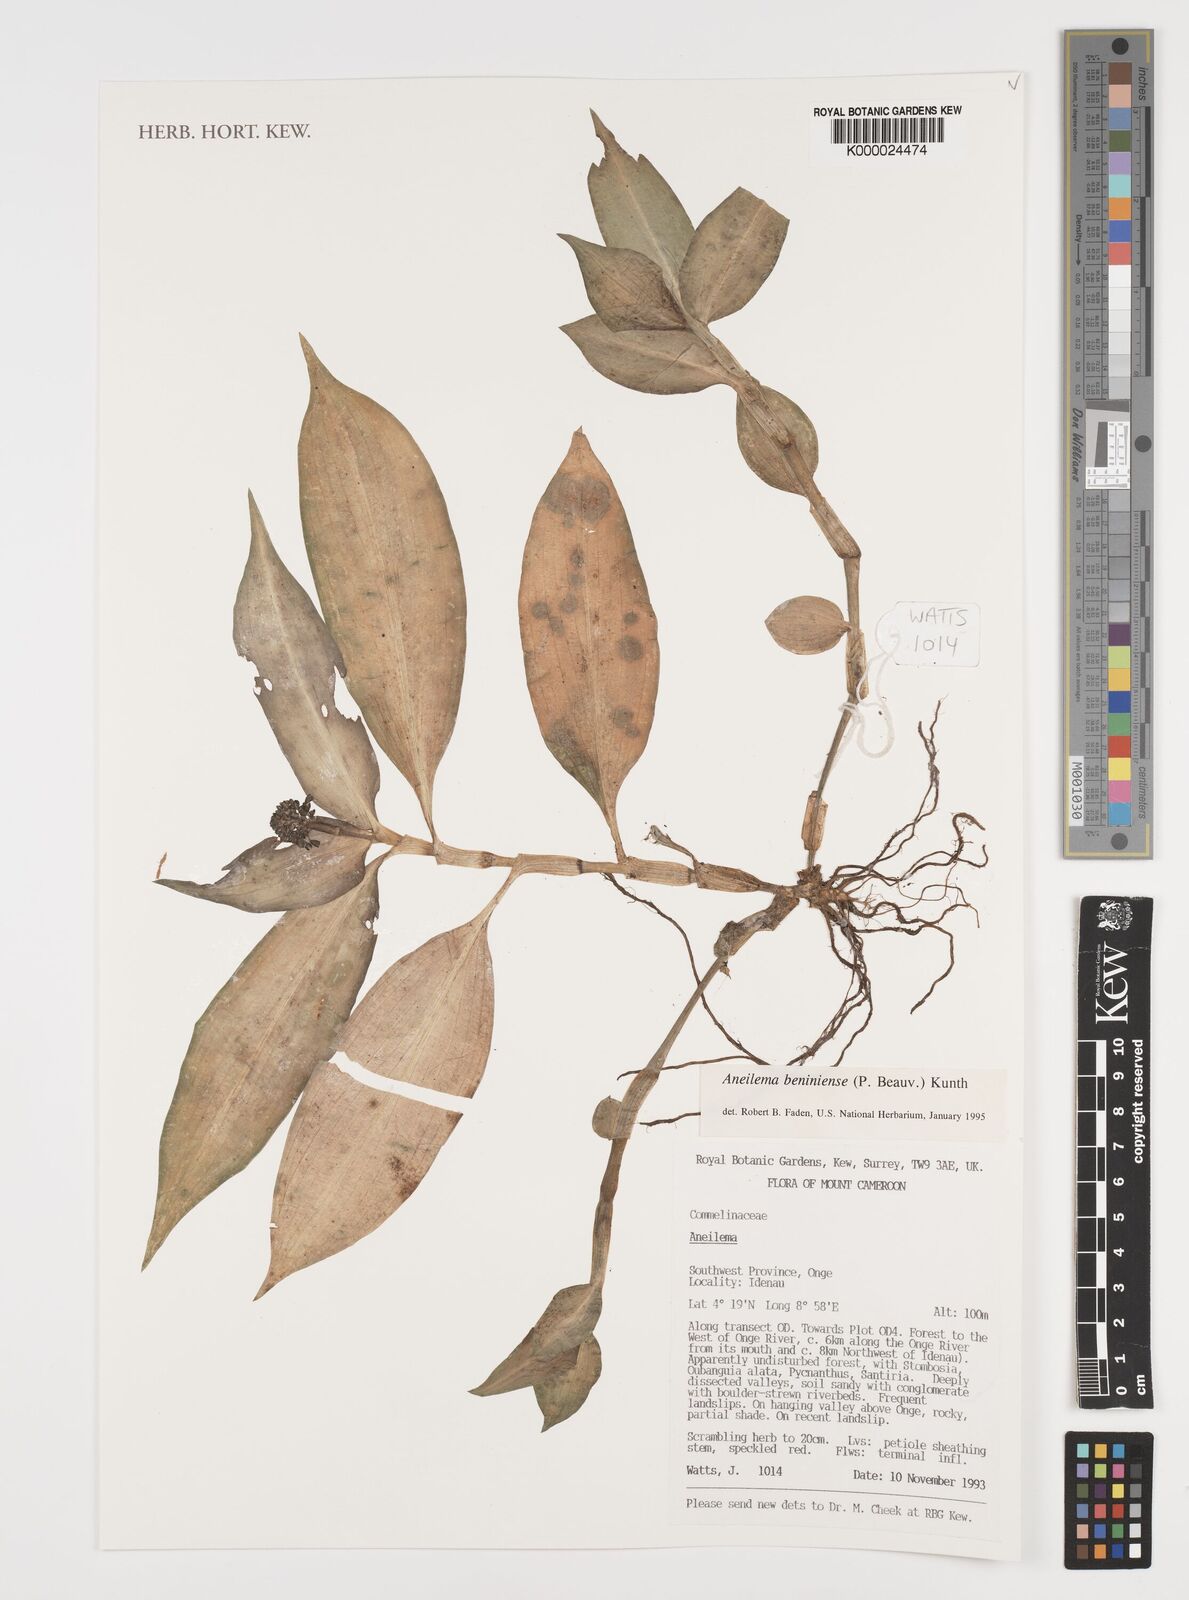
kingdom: Plantae
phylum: Tracheophyta
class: Liliopsida
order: Commelinales
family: Commelinaceae
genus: Aneilema
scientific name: Aneilema beniniense
